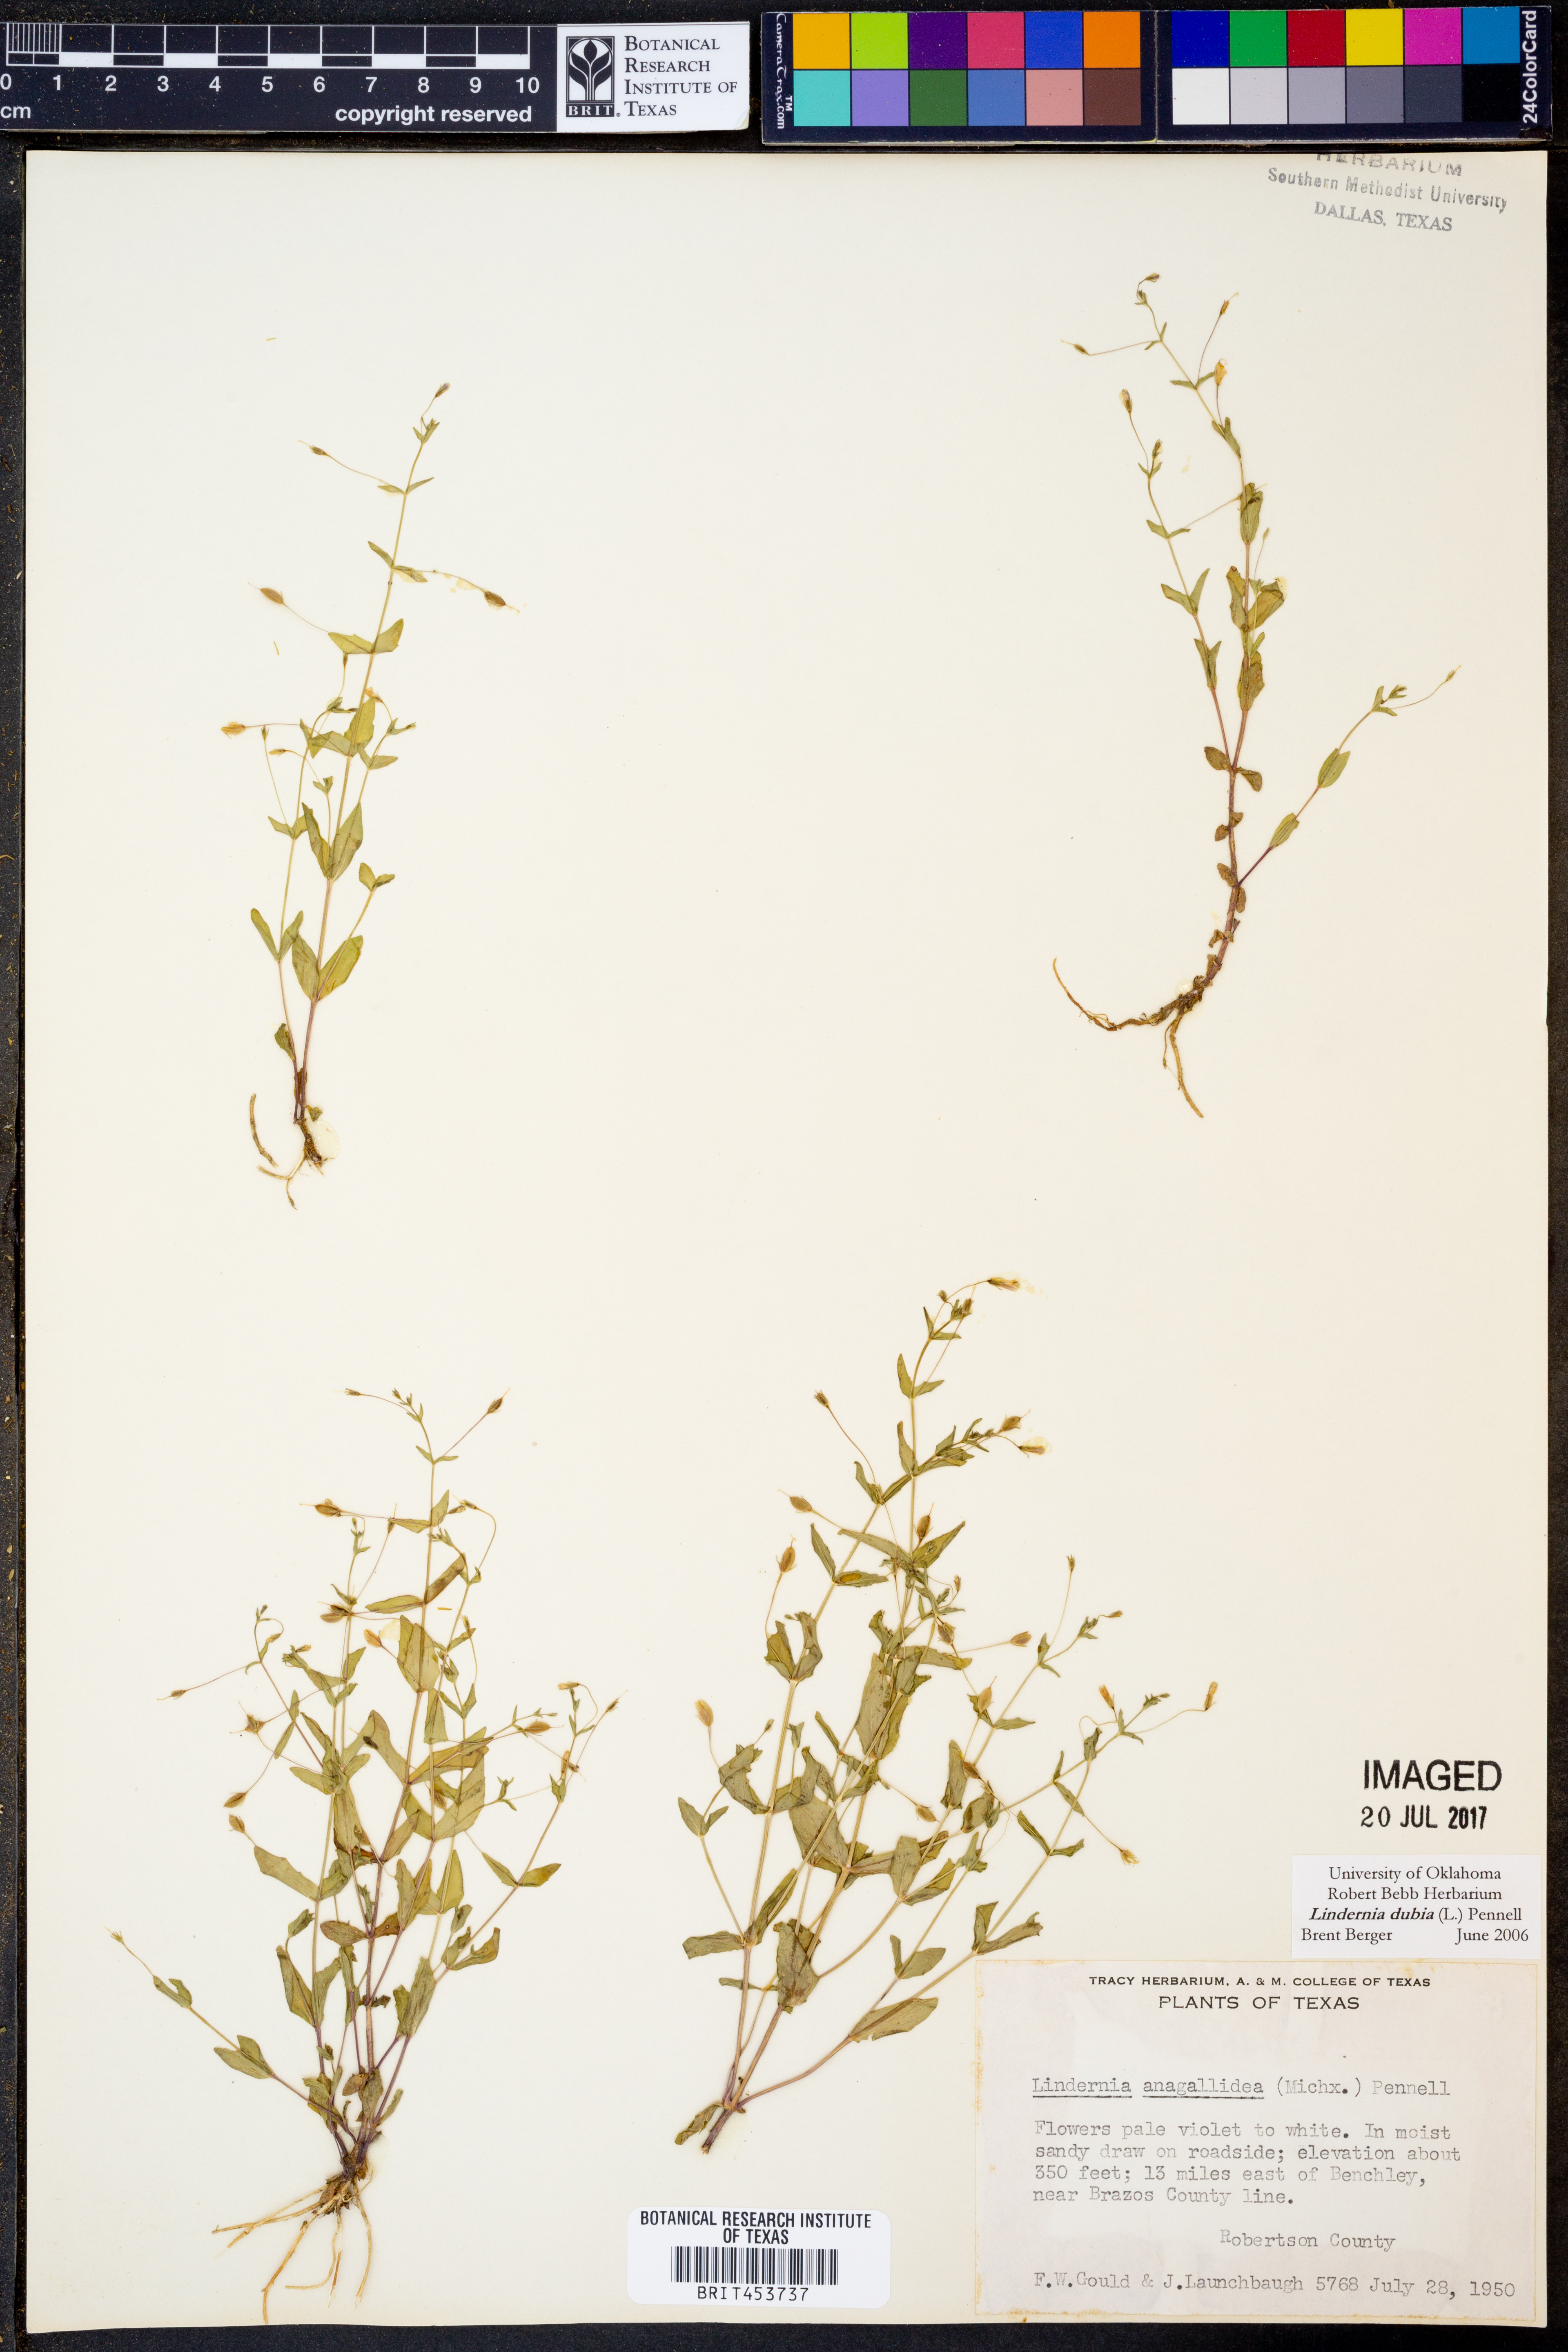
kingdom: Plantae
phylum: Tracheophyta
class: Magnoliopsida
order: Lamiales
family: Linderniaceae
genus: Lindernia
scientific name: Lindernia dubia
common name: Annual false pimpernel
